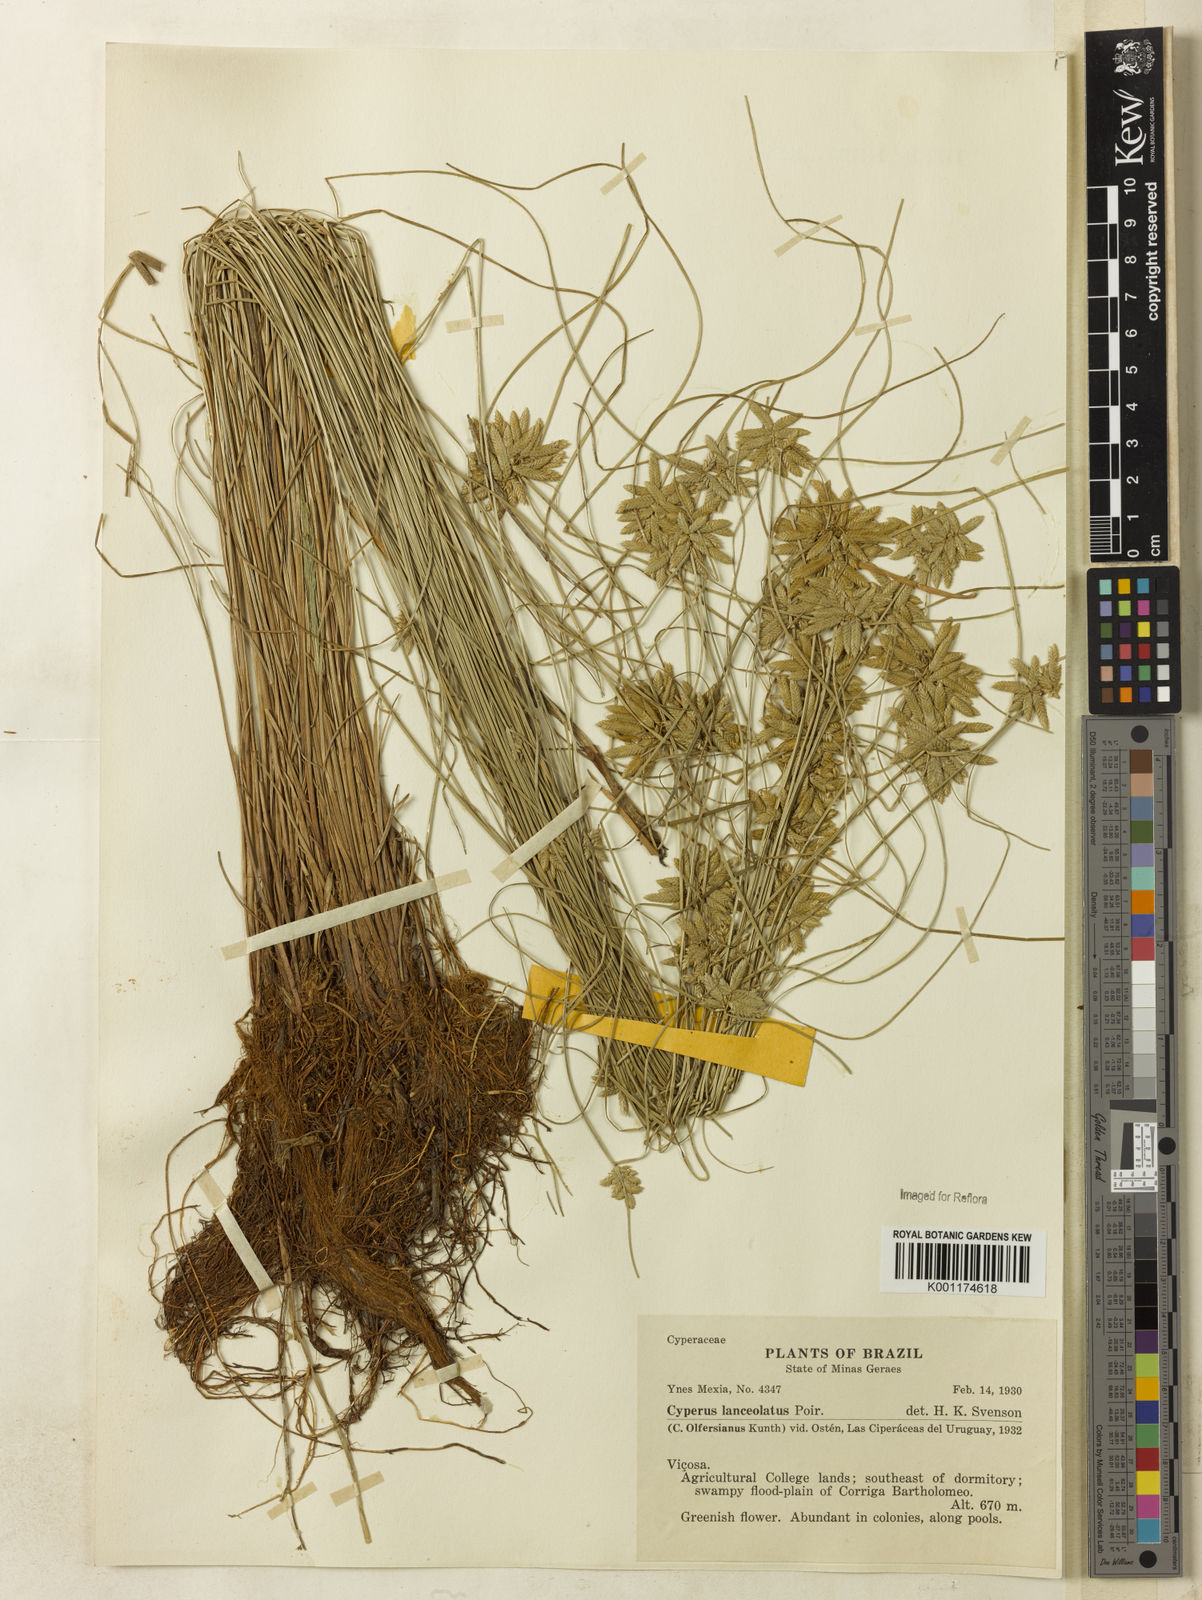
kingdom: Plantae
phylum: Tracheophyta
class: Liliopsida
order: Poales
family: Cyperaceae
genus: Cyperus
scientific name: Cyperus
